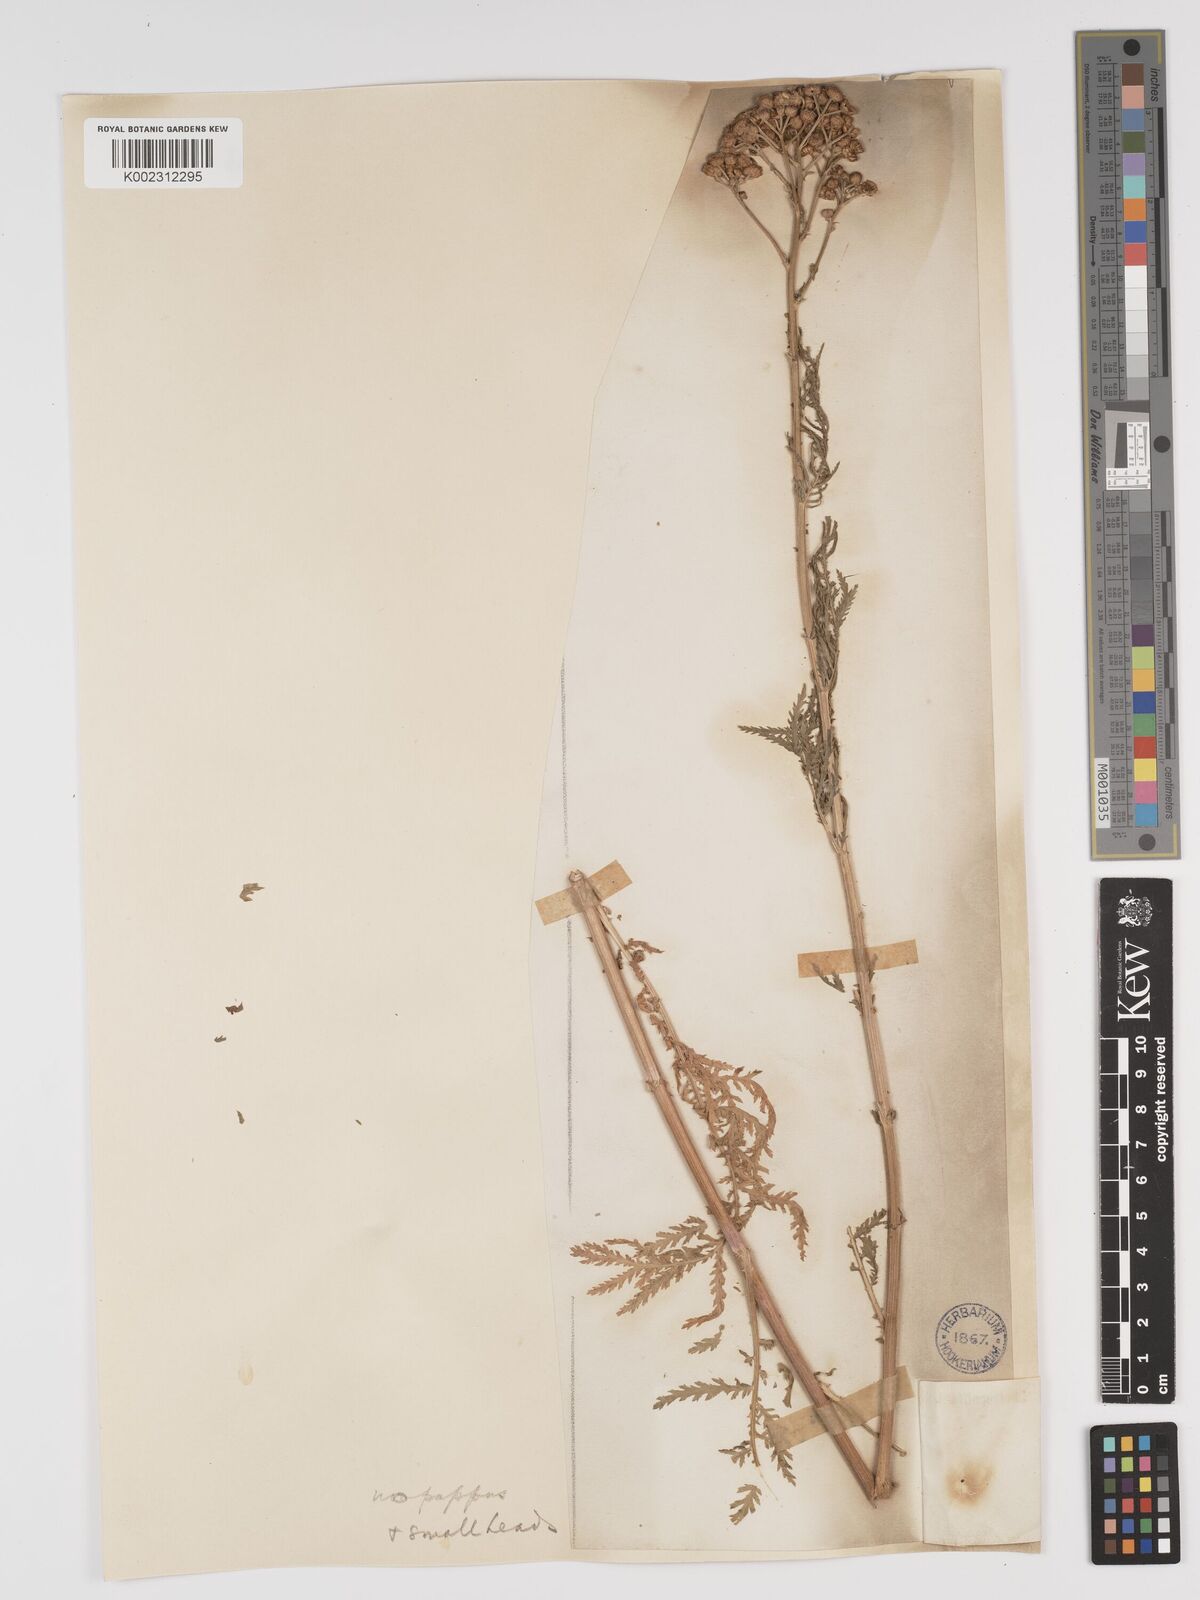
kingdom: Plantae
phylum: Tracheophyta
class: Magnoliopsida
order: Asterales
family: Asteraceae
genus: Lepidolopsis
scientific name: Lepidolopsis pseudoachillea
